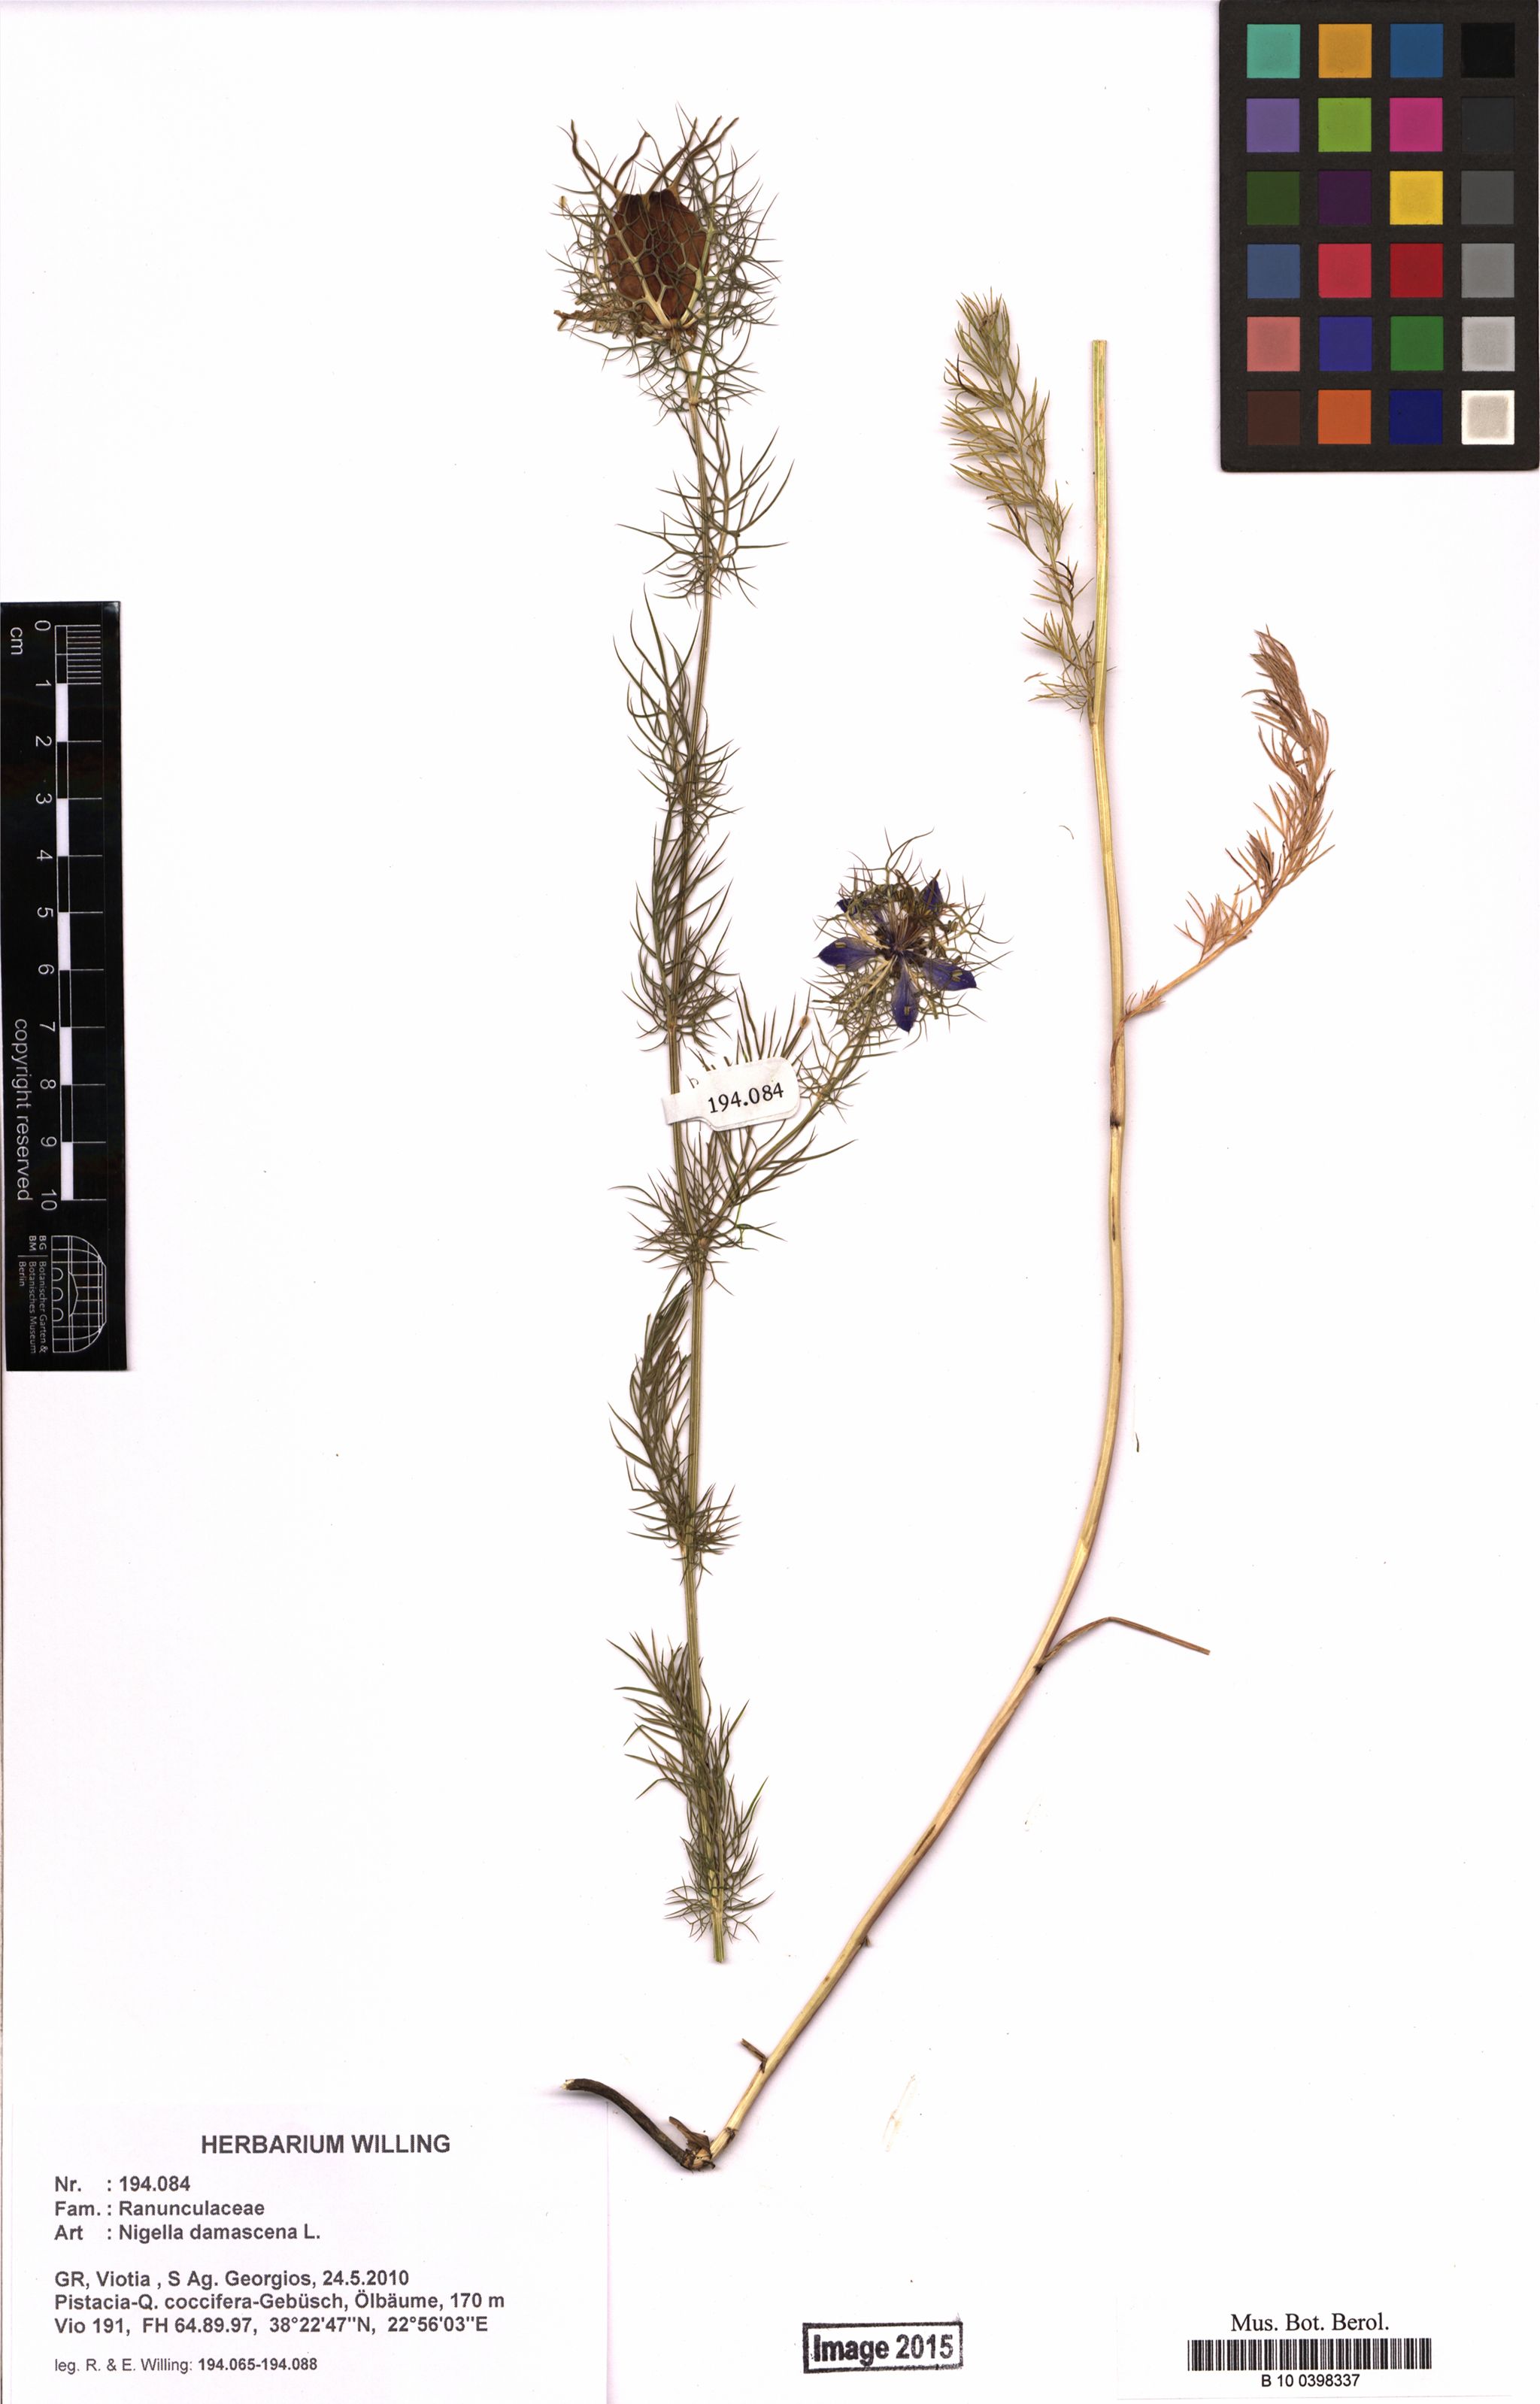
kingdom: Plantae
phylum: Tracheophyta
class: Magnoliopsida
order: Ranunculales
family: Ranunculaceae
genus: Nigella
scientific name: Nigella damascena
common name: Love-in-a-mist
